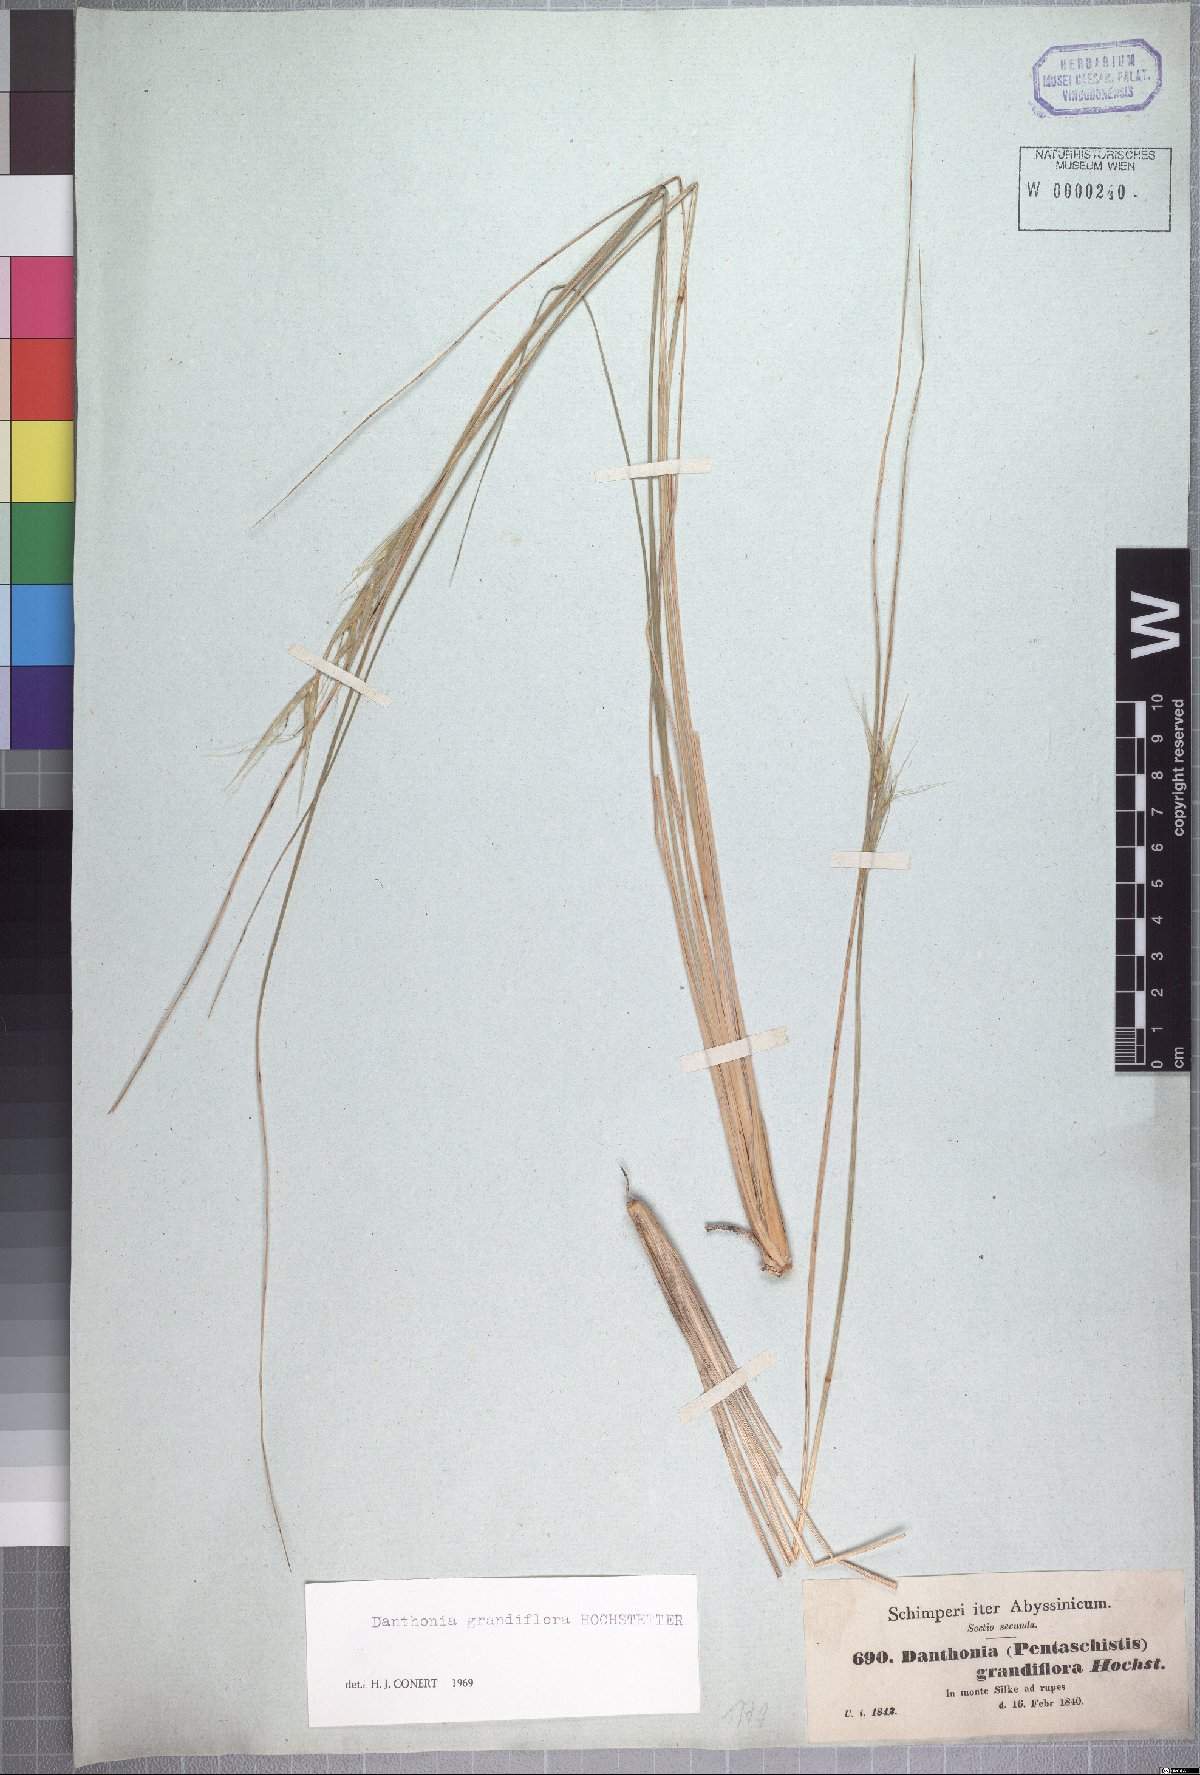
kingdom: Plantae
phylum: Tracheophyta
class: Liliopsida
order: Poales
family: Poaceae
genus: Merxmuellera
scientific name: Merxmuellera grandiflora
